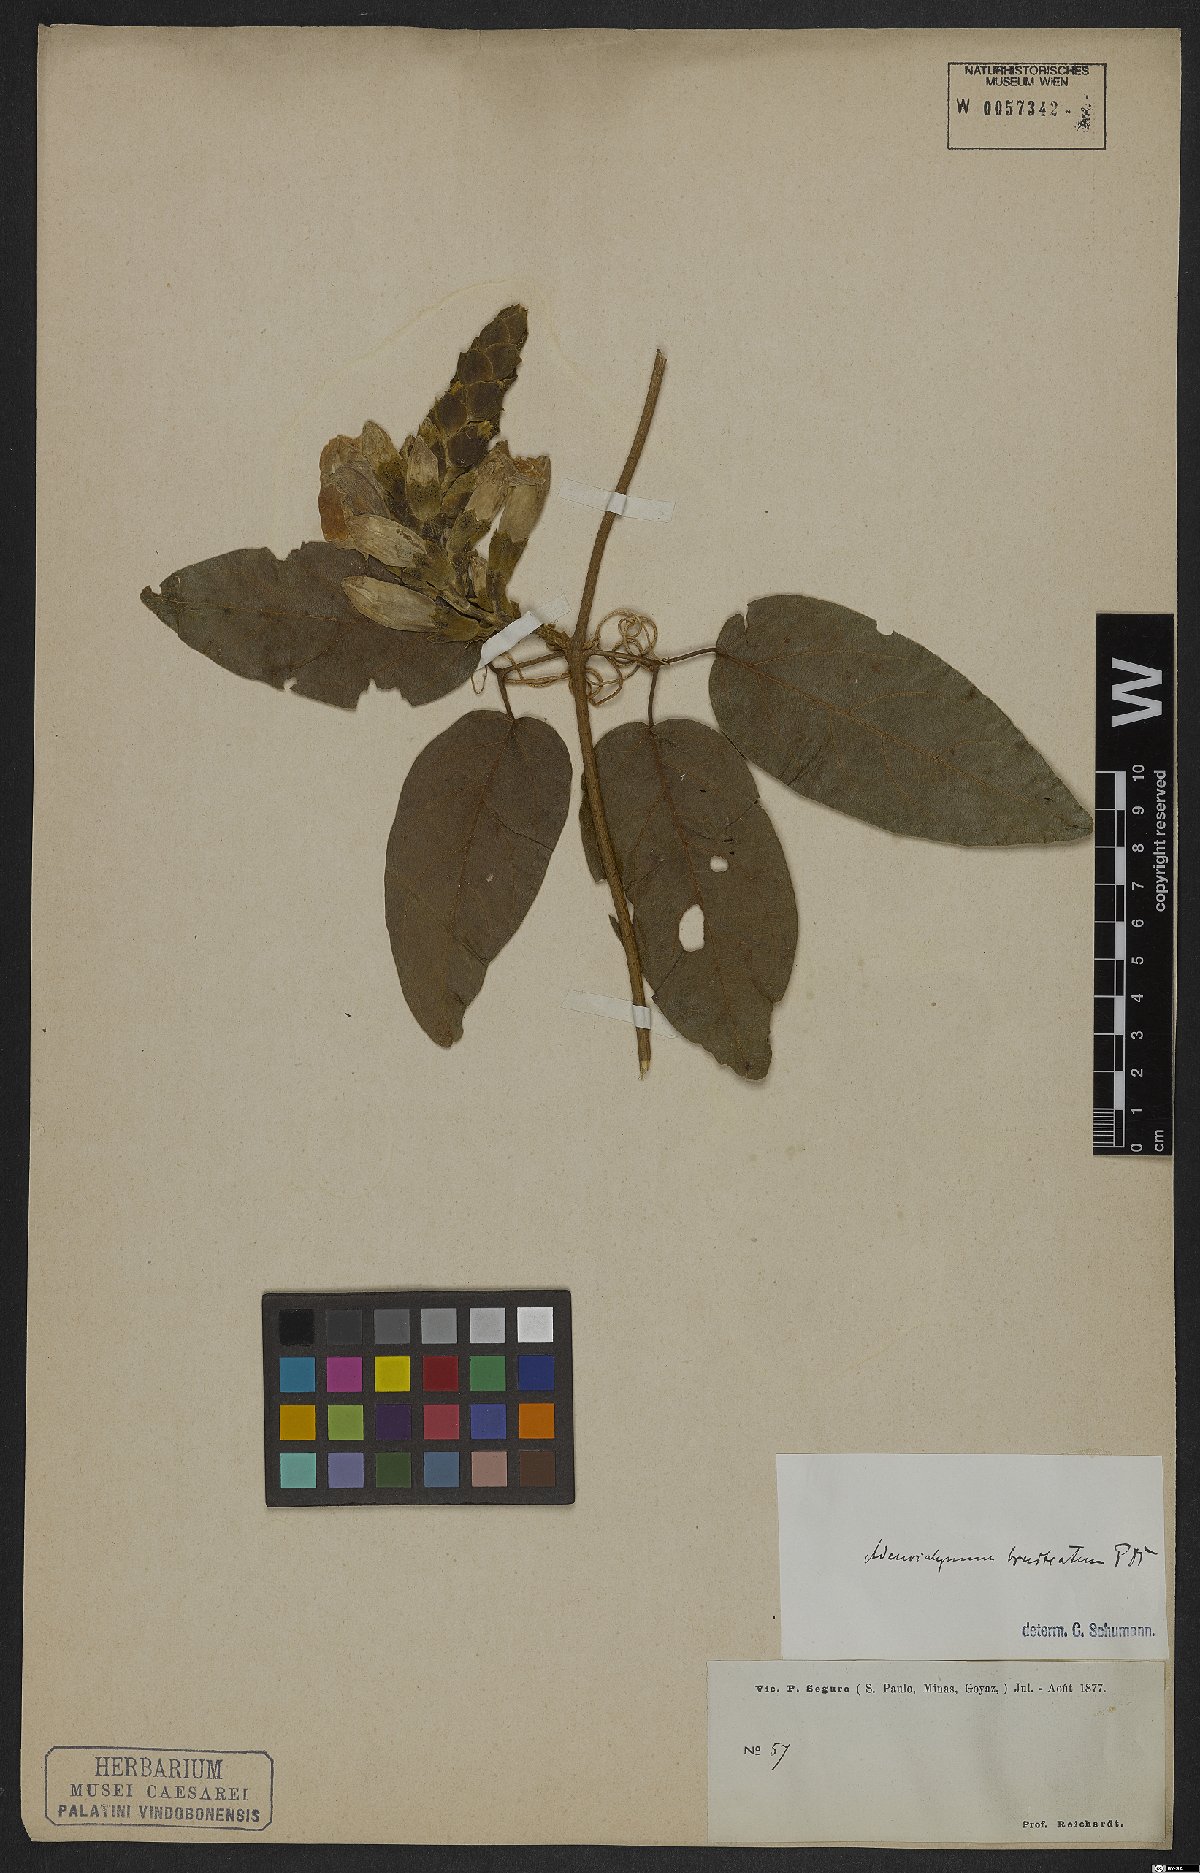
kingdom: Plantae
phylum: Tracheophyta
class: Magnoliopsida
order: Lamiales
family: Bignoniaceae
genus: Adenocalymma
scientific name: Adenocalymma bracteatum
